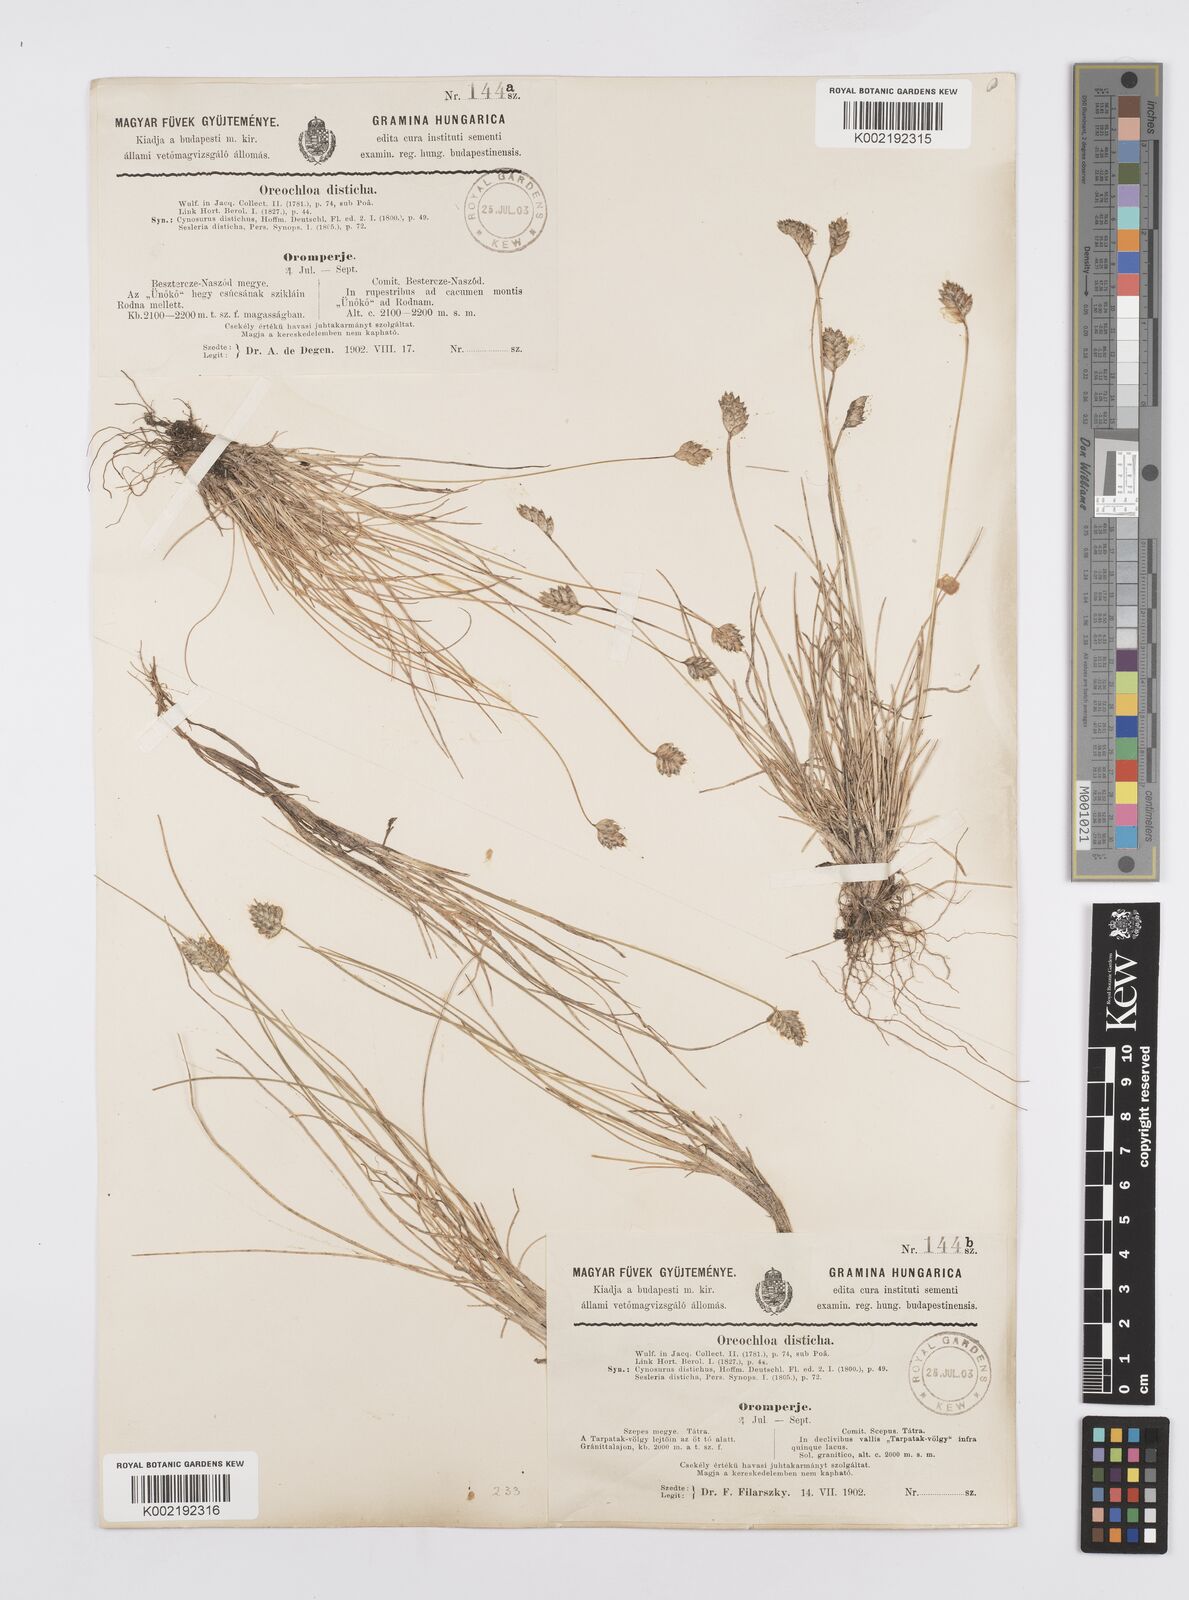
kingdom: Plantae
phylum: Tracheophyta
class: Liliopsida
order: Poales
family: Poaceae
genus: Oreochloa
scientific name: Oreochloa disticha
